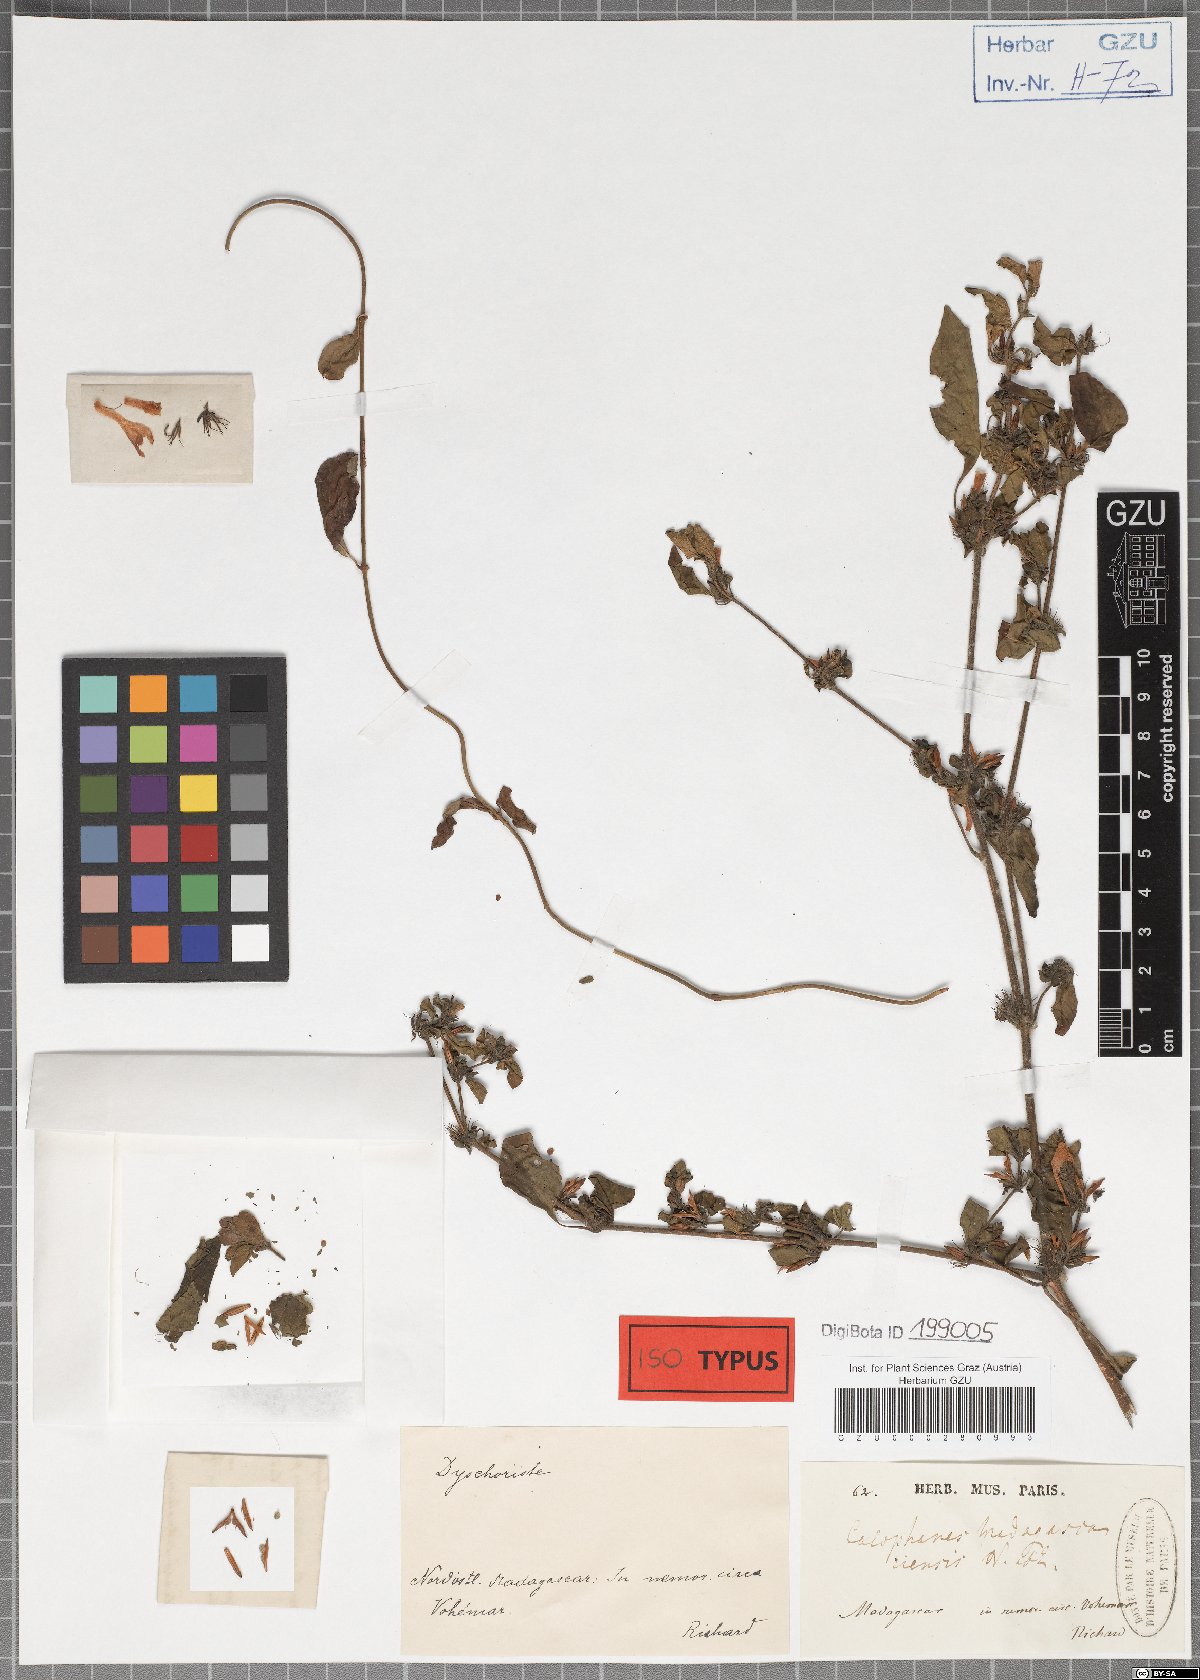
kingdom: Plantae
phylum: Tracheophyta
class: Magnoliopsida
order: Lamiales
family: Acanthaceae
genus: Dyschoriste
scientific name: Dyschoriste madagascariensis
